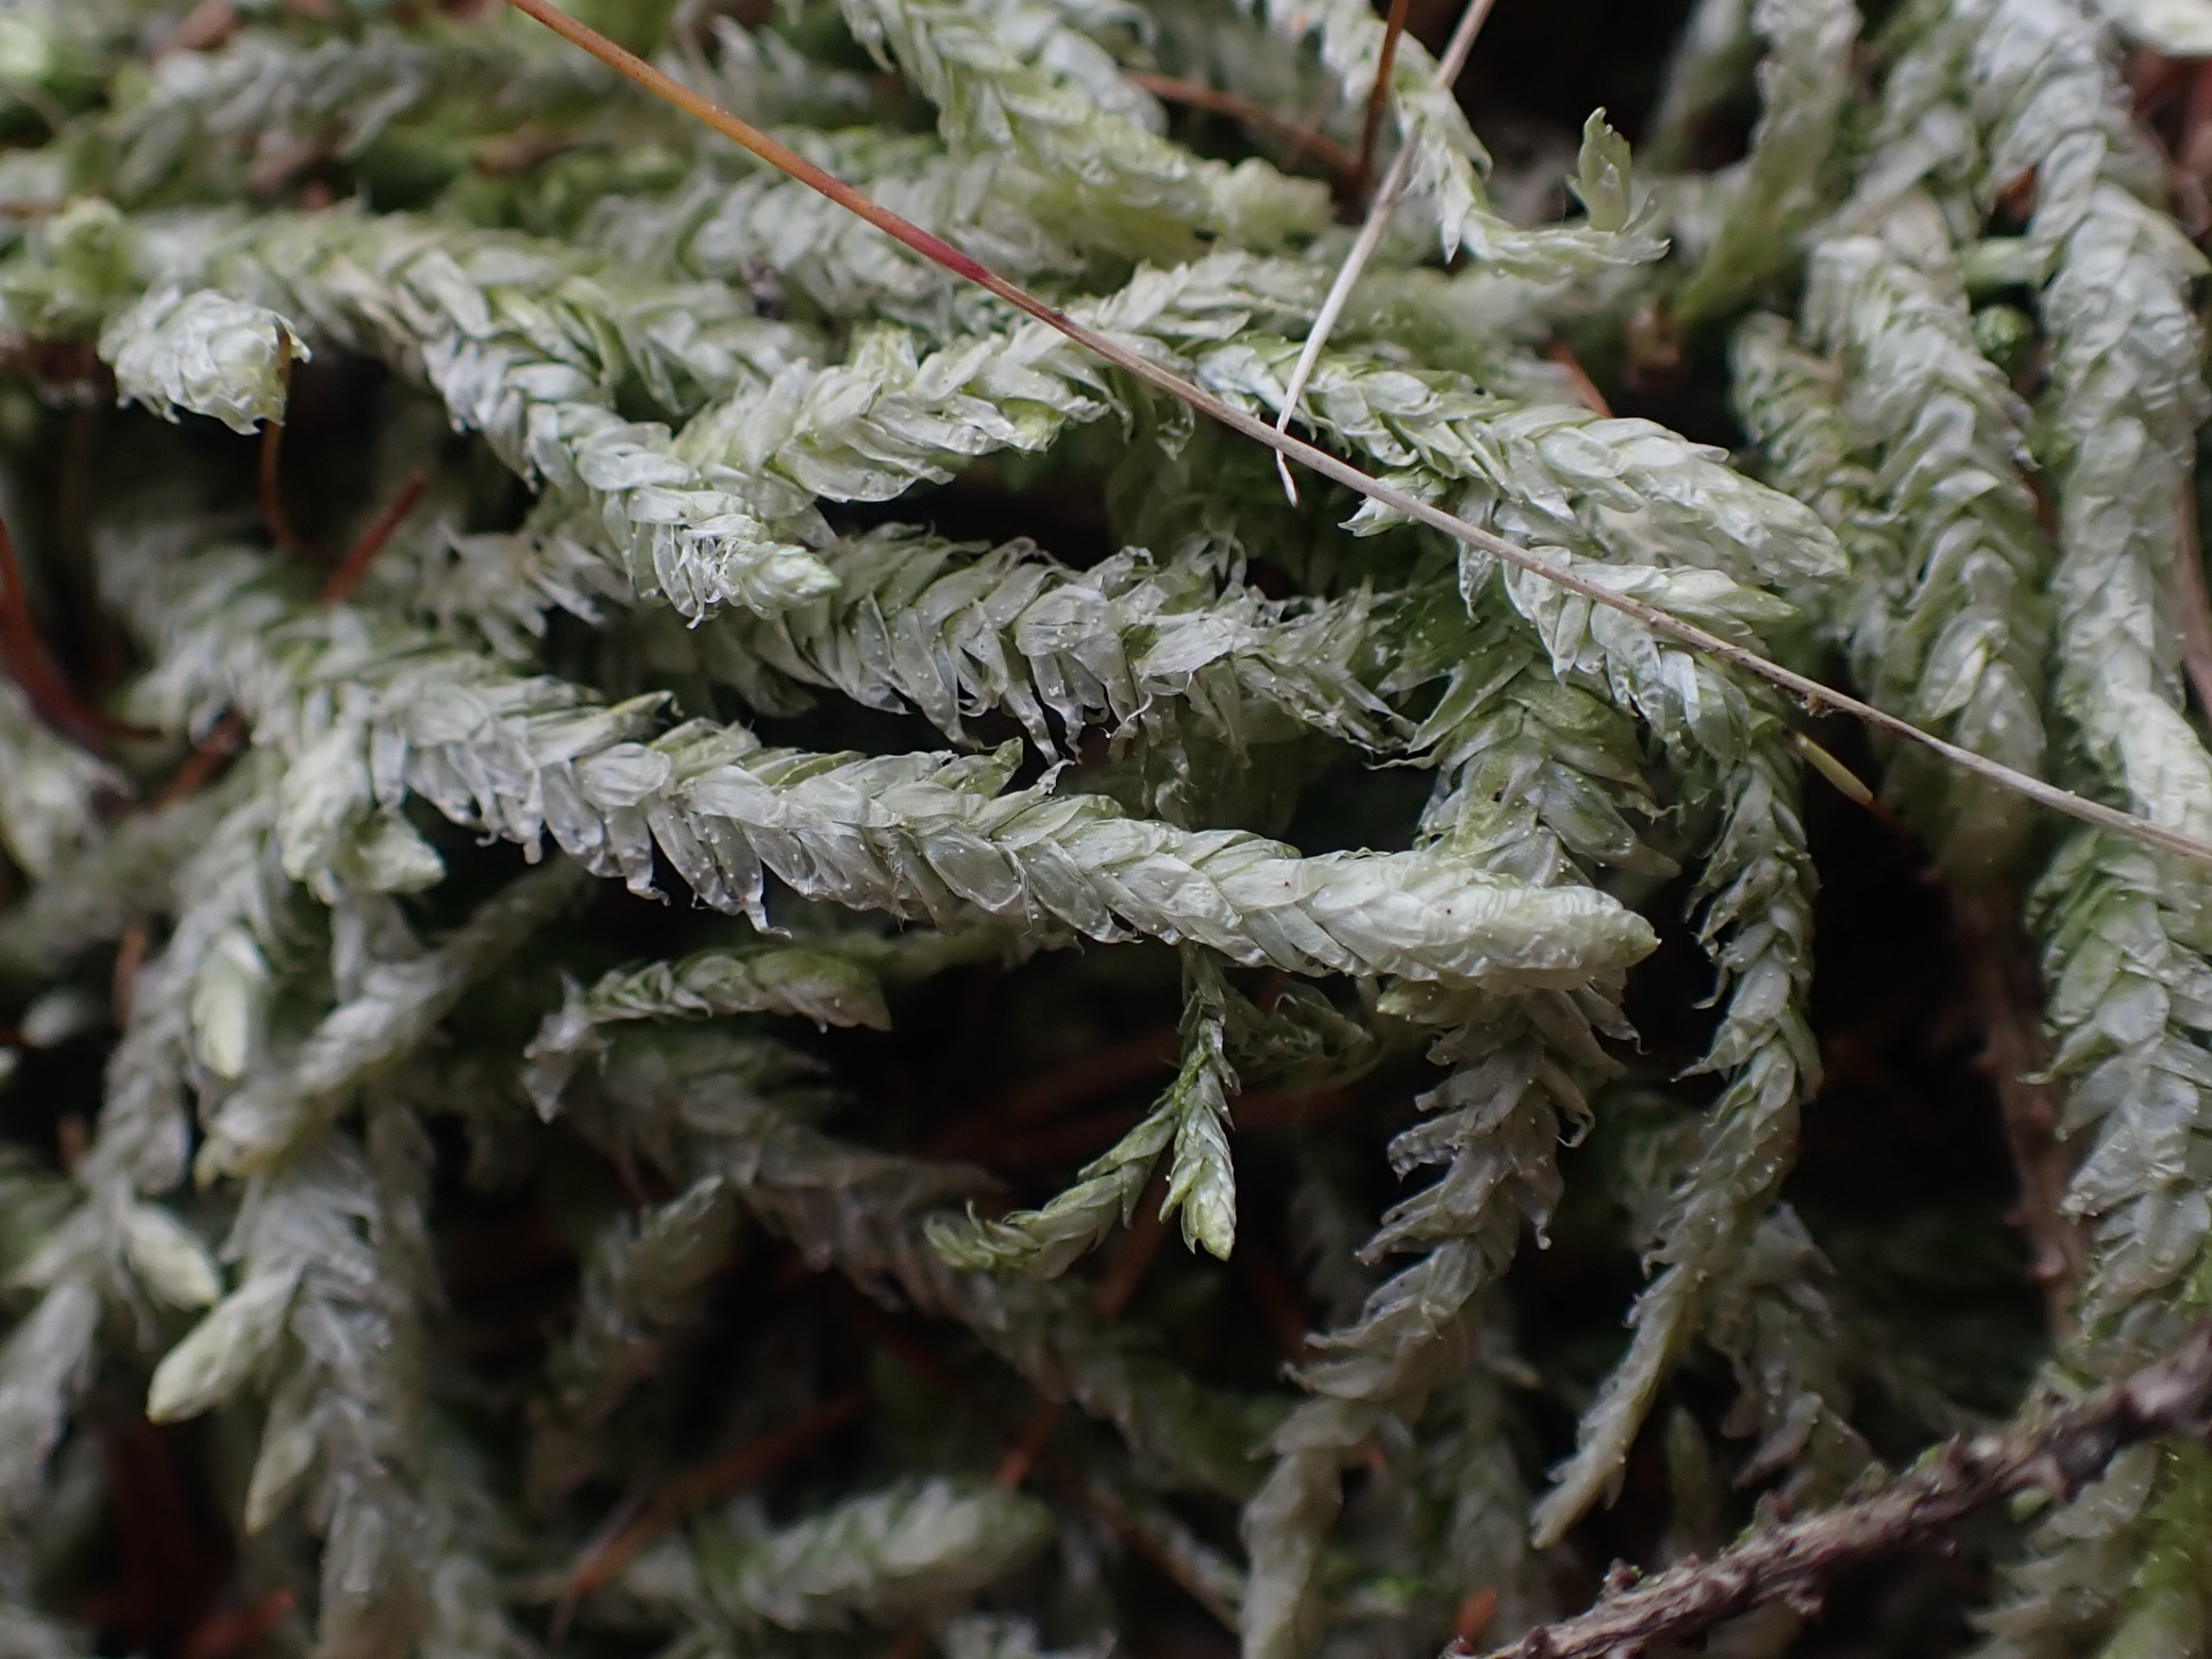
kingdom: Plantae
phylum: Bryophyta
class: Bryopsida
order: Hypnales
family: Plagiotheciaceae
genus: Plagiothecium
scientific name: Plagiothecium undulatum
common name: Bølget tæppemos
